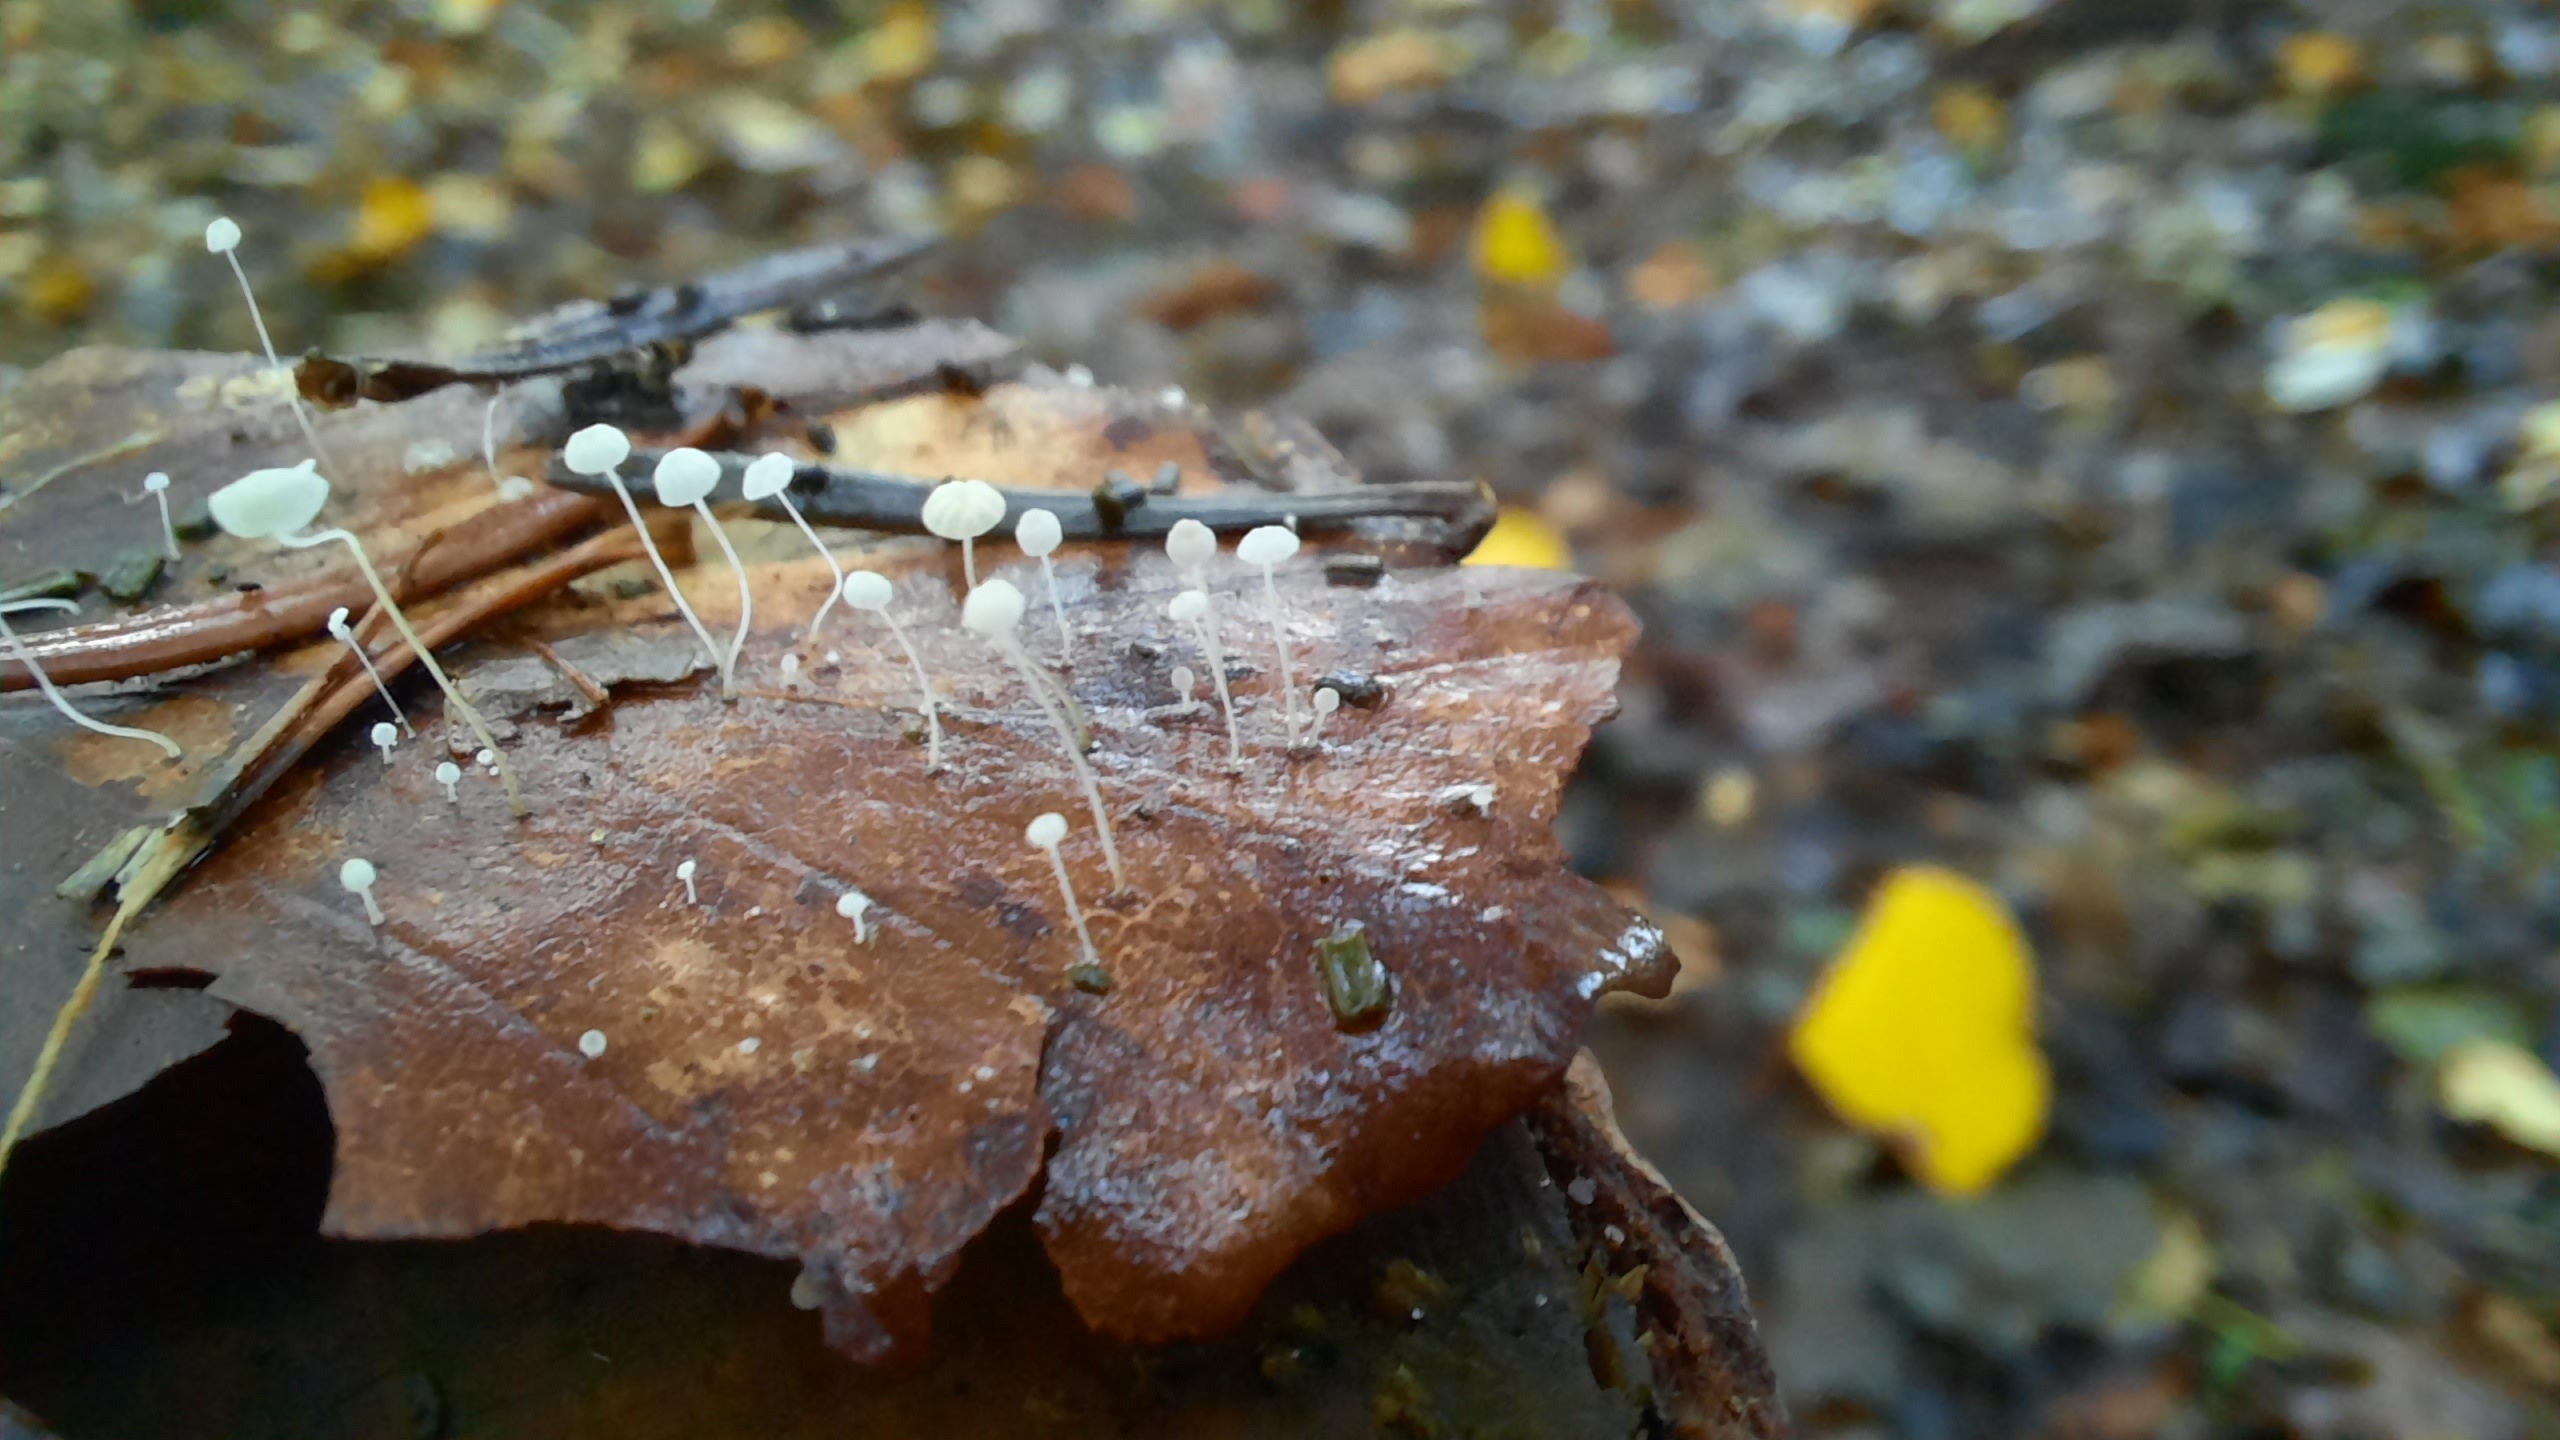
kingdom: Fungi
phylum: Basidiomycota
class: Agaricomycetes
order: Agaricales
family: Mycenaceae
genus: Mycena
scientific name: Mycena
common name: huesvamp
